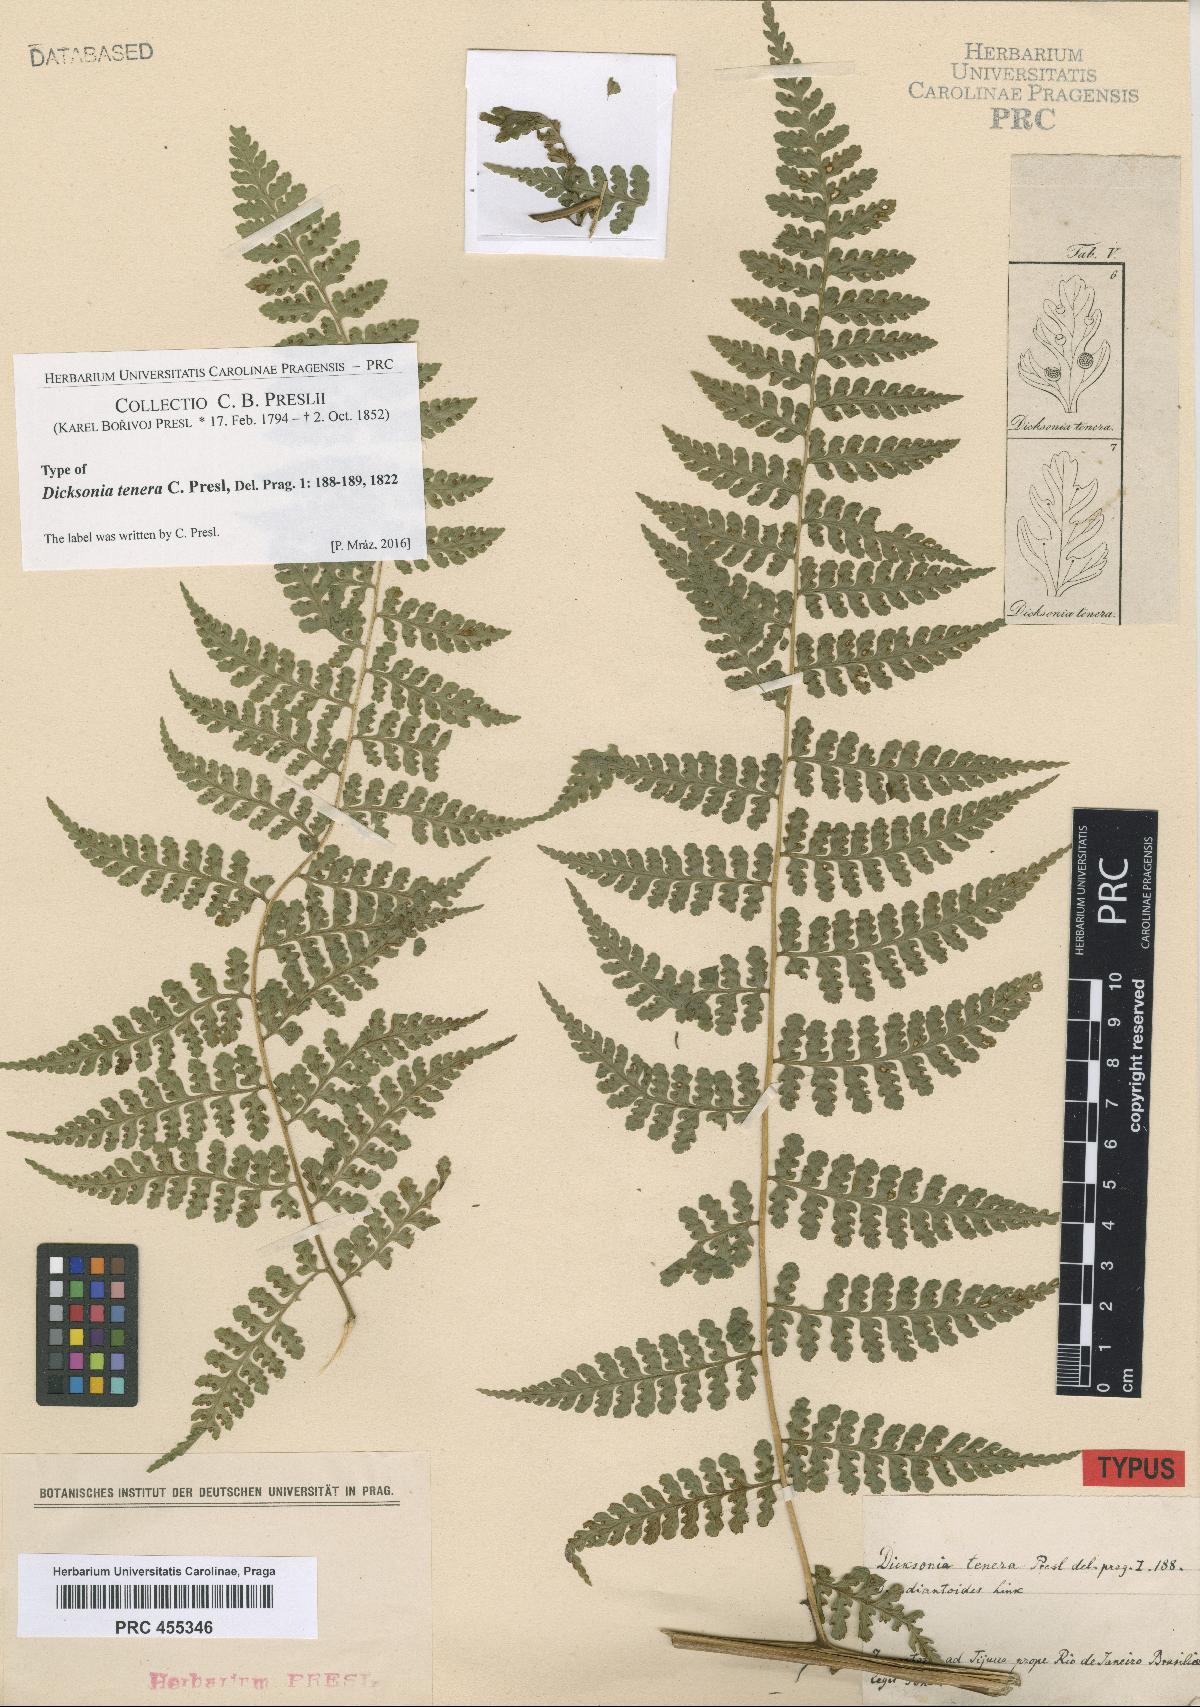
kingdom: Plantae
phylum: Tracheophyta
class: Polypodiopsida
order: Polypodiales
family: Dennstaedtiaceae
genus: Mucura
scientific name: Mucura globulifera
